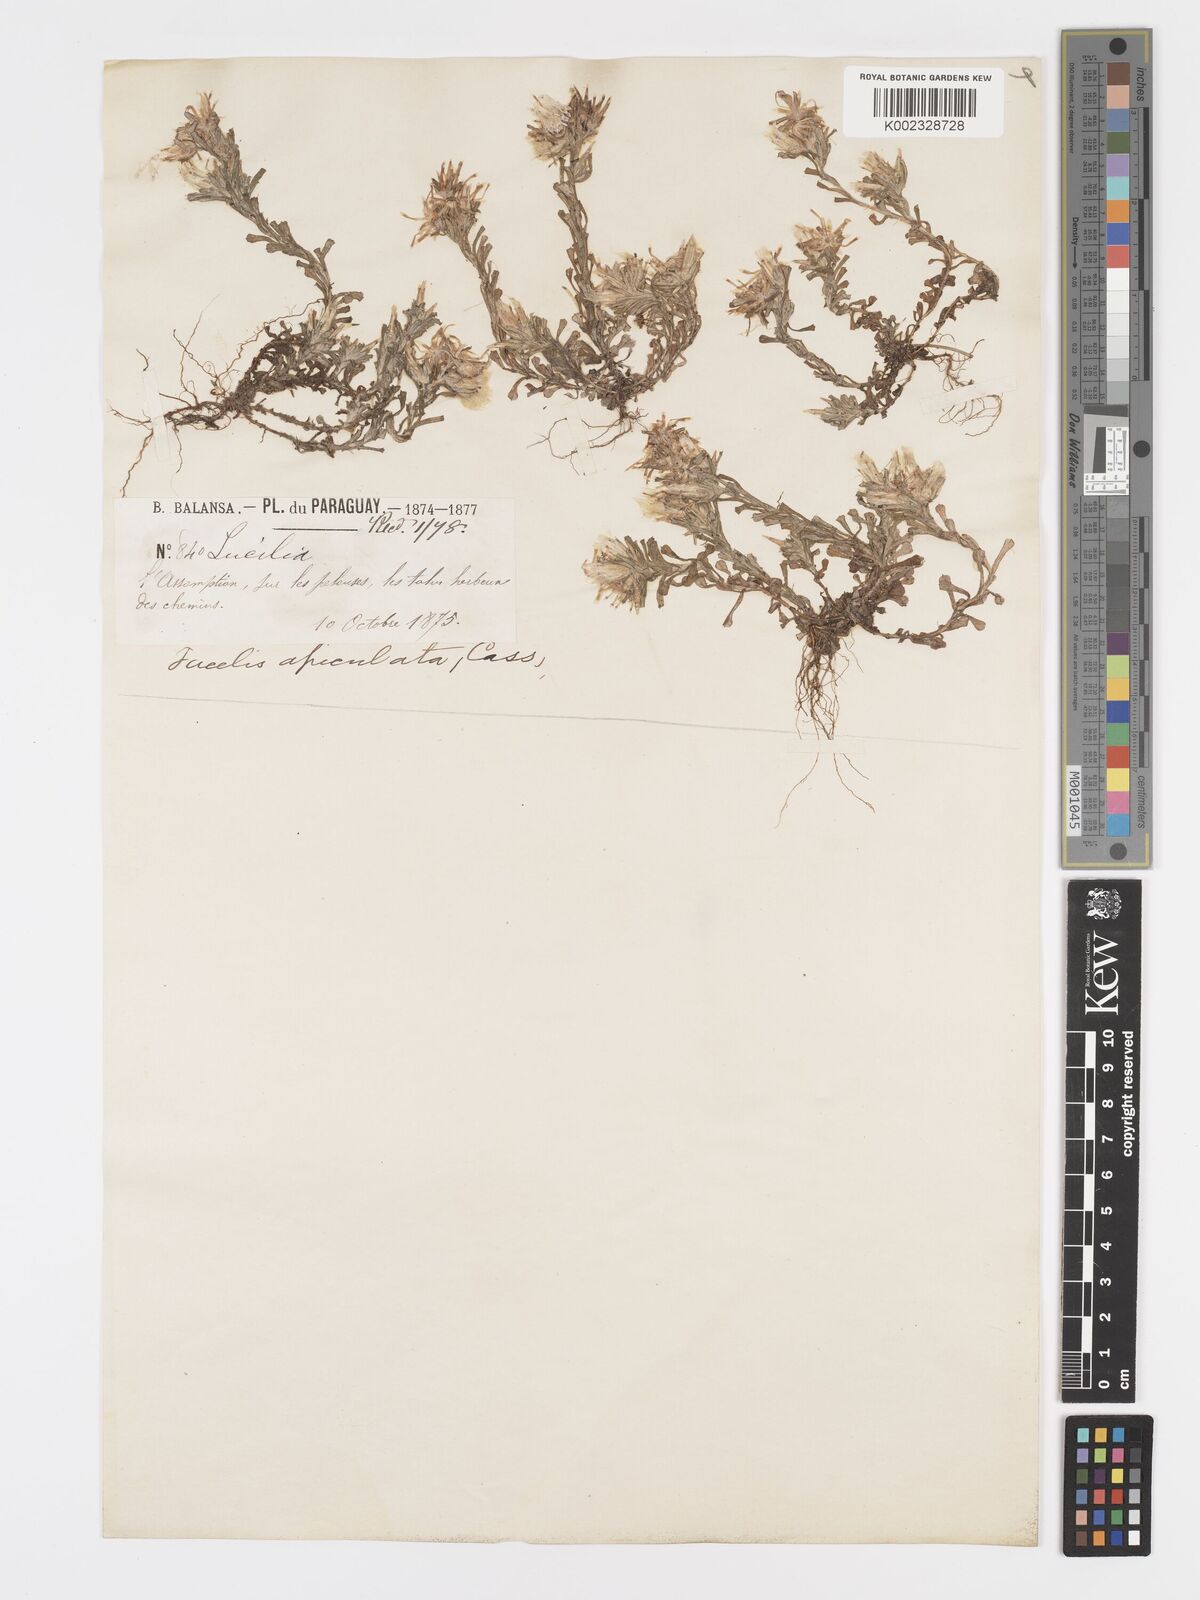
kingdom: Plantae
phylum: Tracheophyta
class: Magnoliopsida
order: Asterales
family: Asteraceae
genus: Facelis
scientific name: Facelis retusa
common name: Annual trampweed
